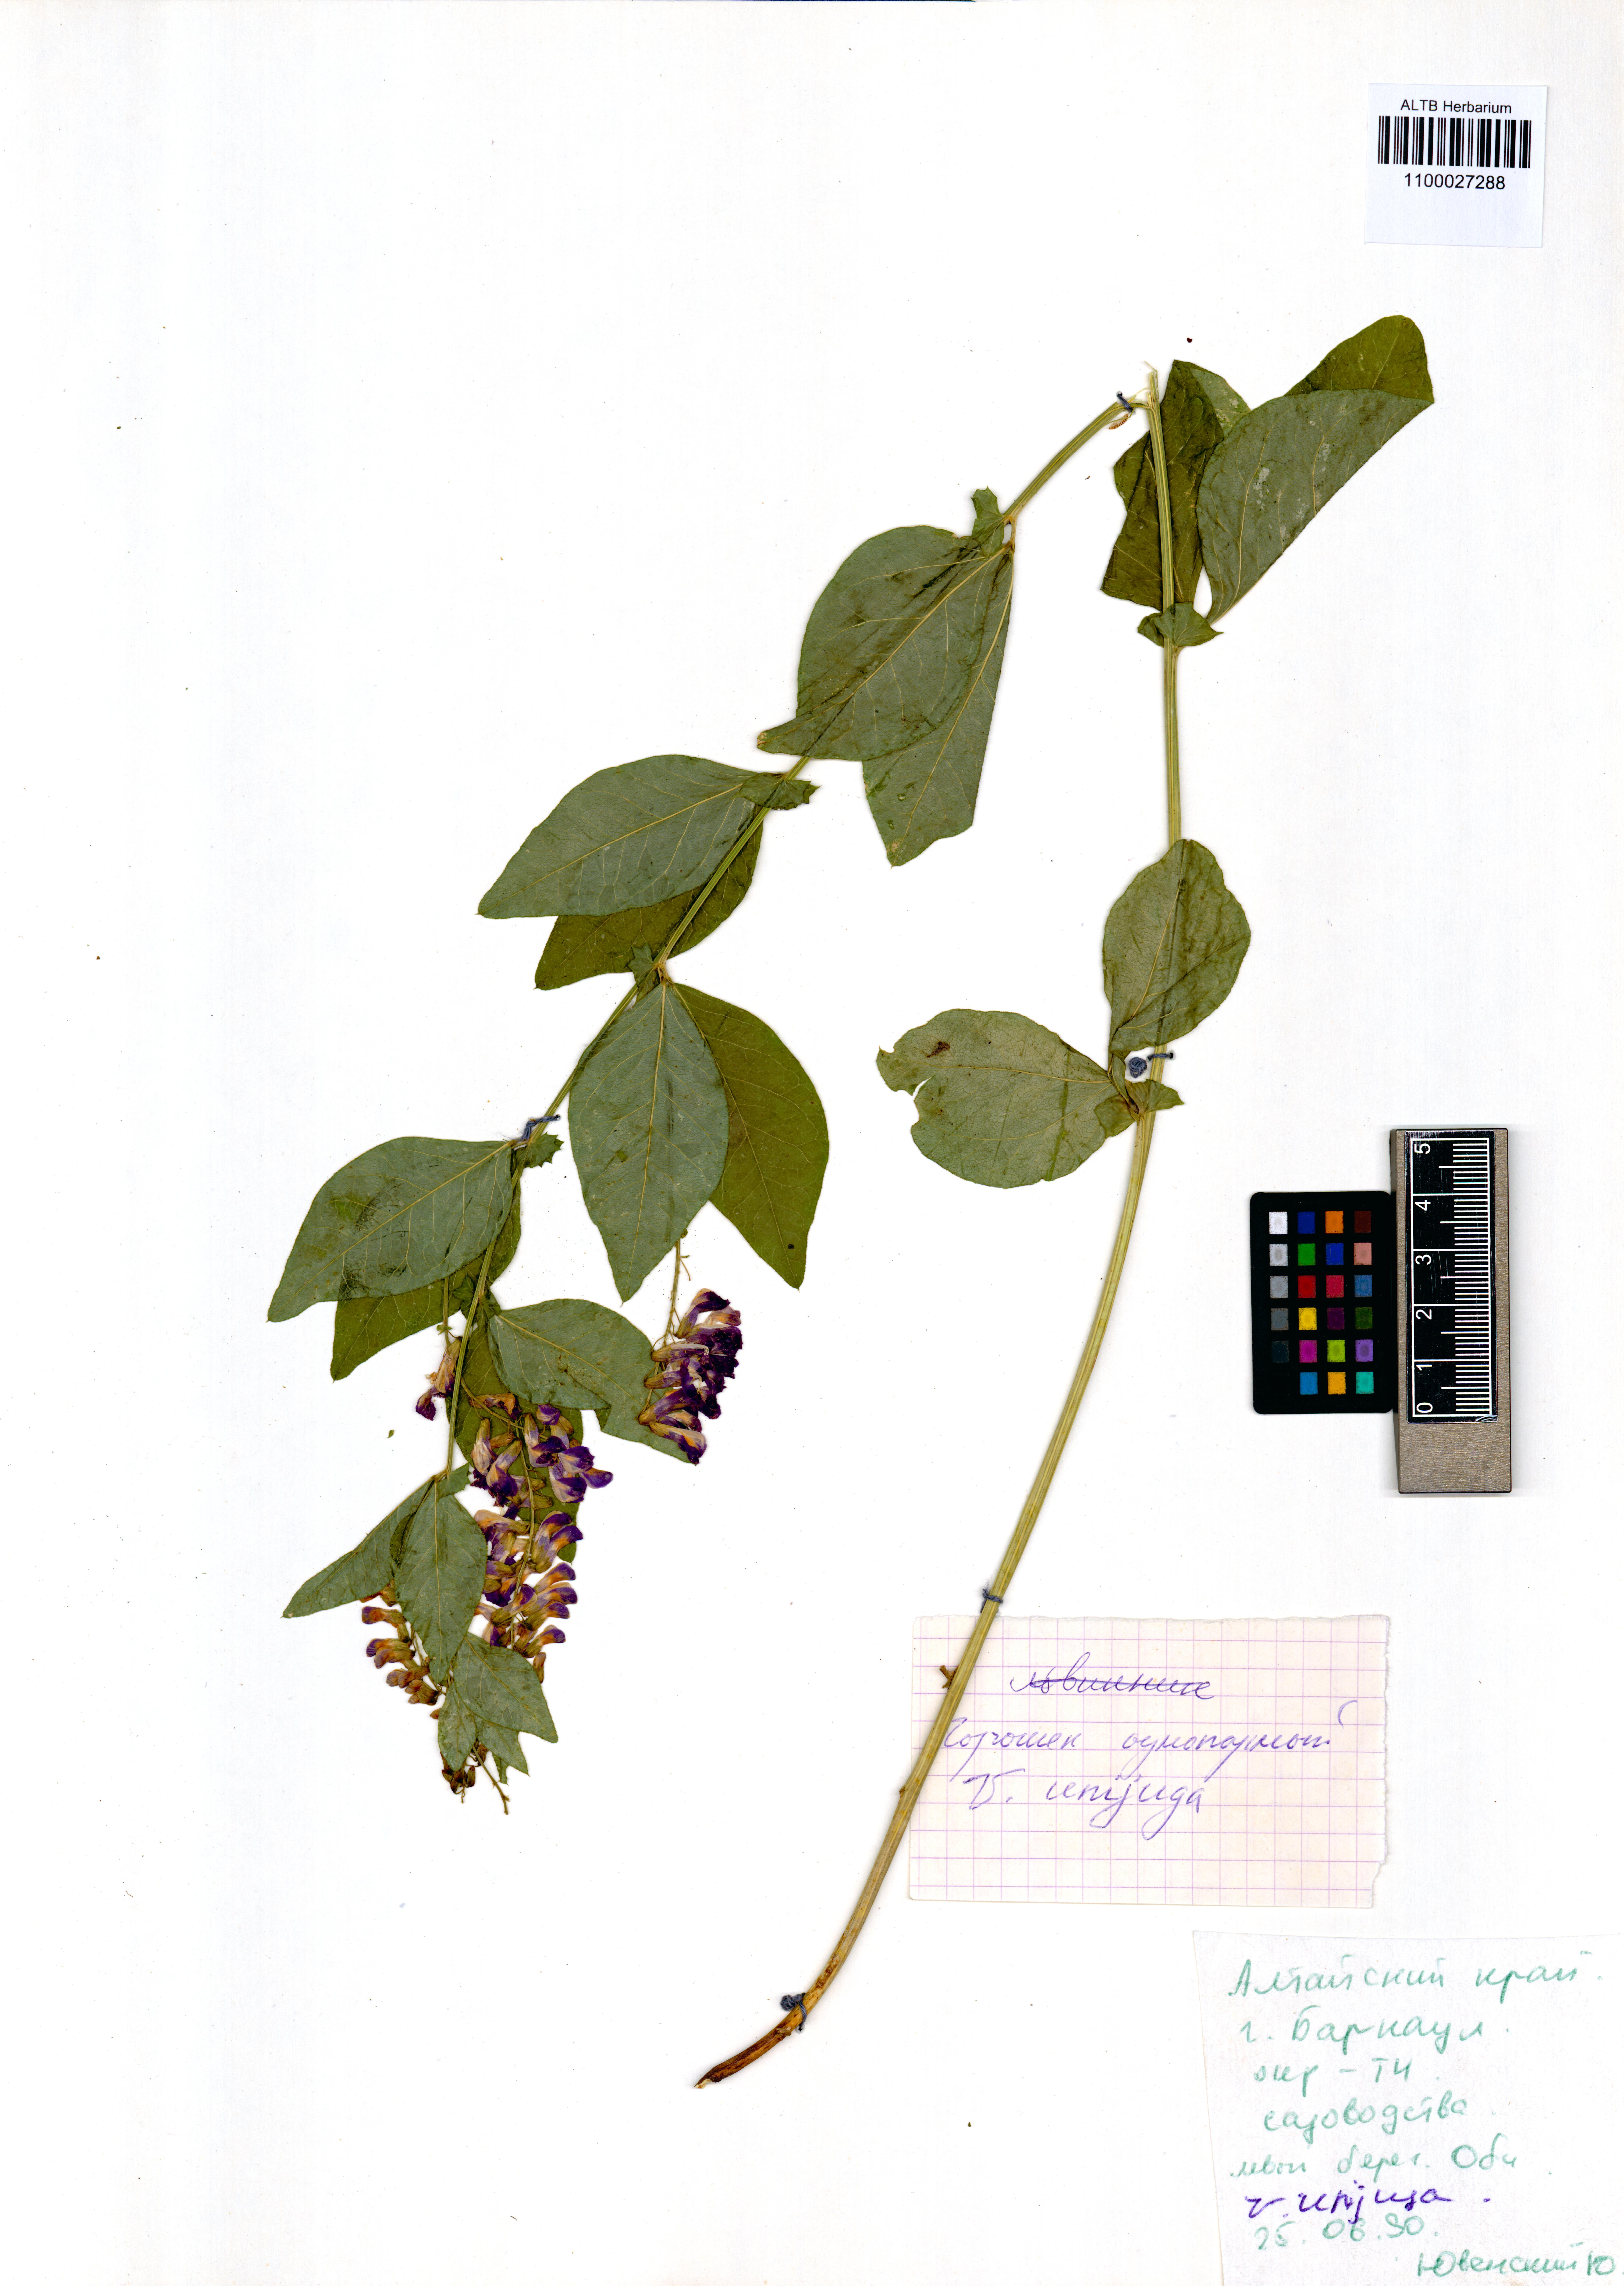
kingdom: Plantae
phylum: Tracheophyta
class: Magnoliopsida
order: Fabales
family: Fabaceae
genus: Vicia
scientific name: Vicia unijuga
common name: Two-leaf vetch
